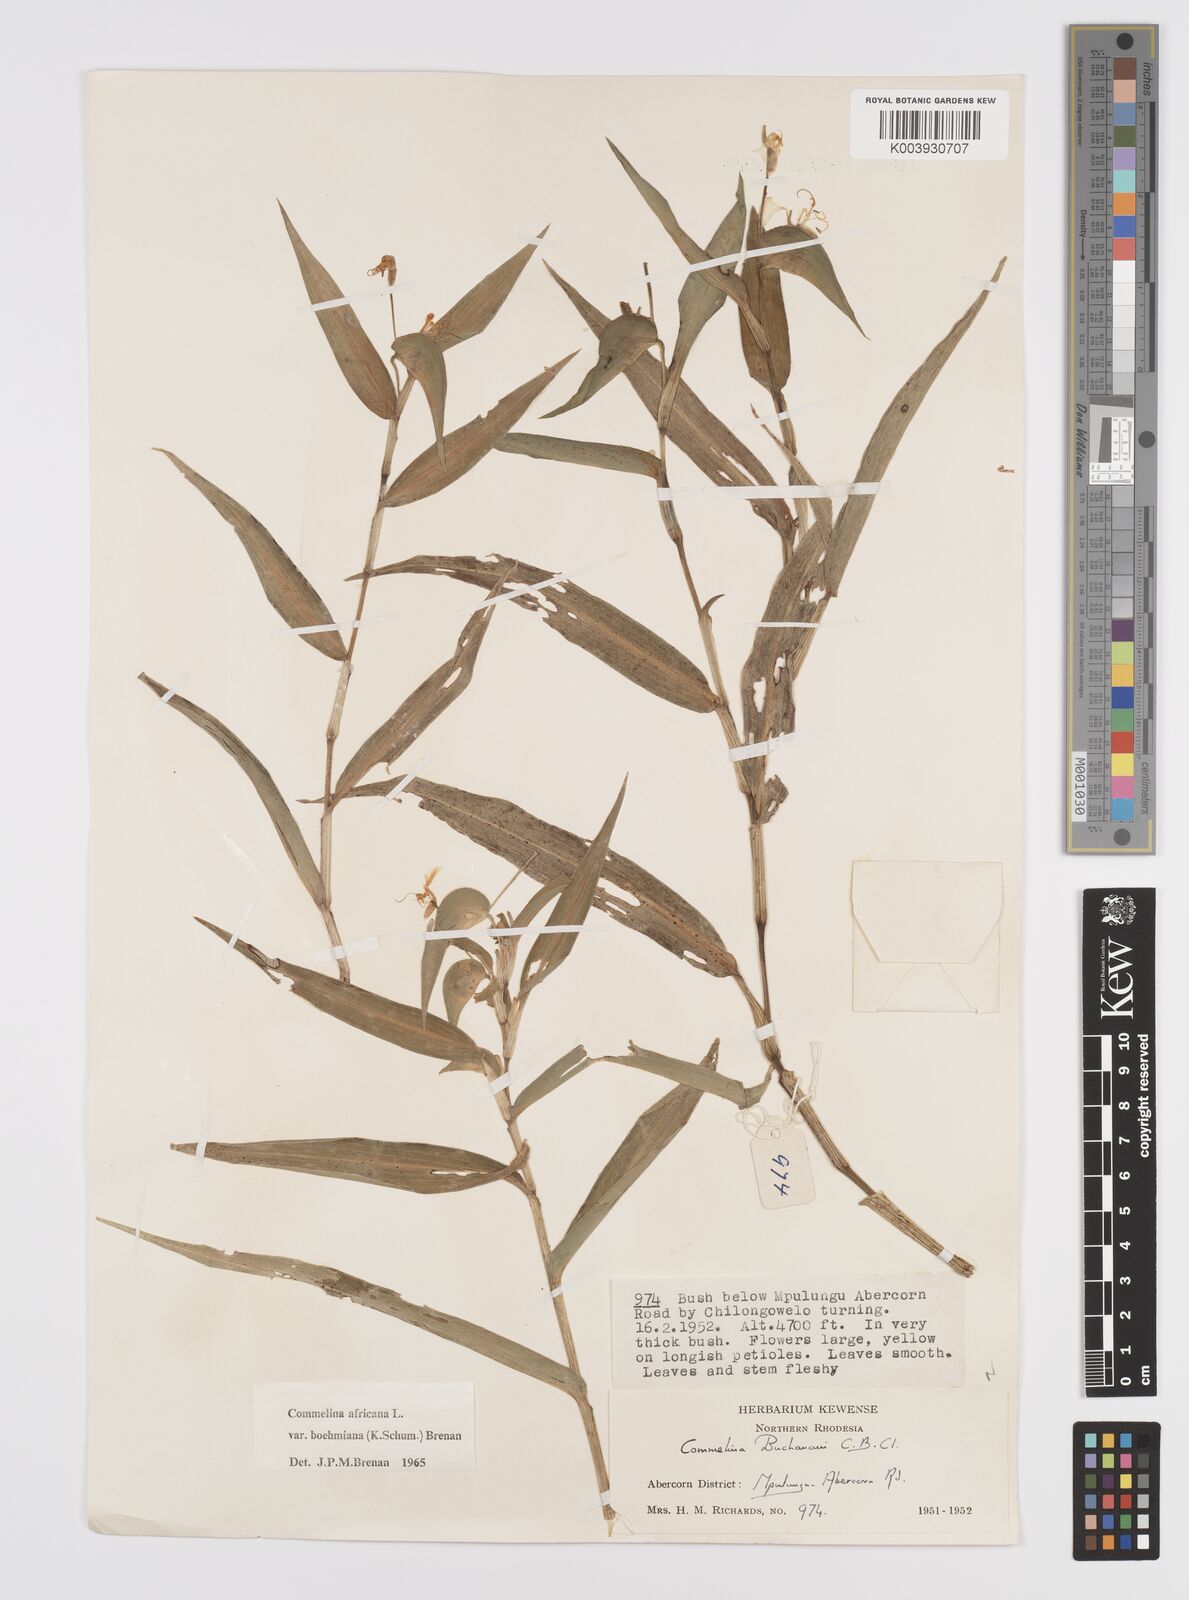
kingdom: Plantae
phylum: Tracheophyta
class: Liliopsida
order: Commelinales
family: Commelinaceae
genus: Commelina
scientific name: Commelina africana
